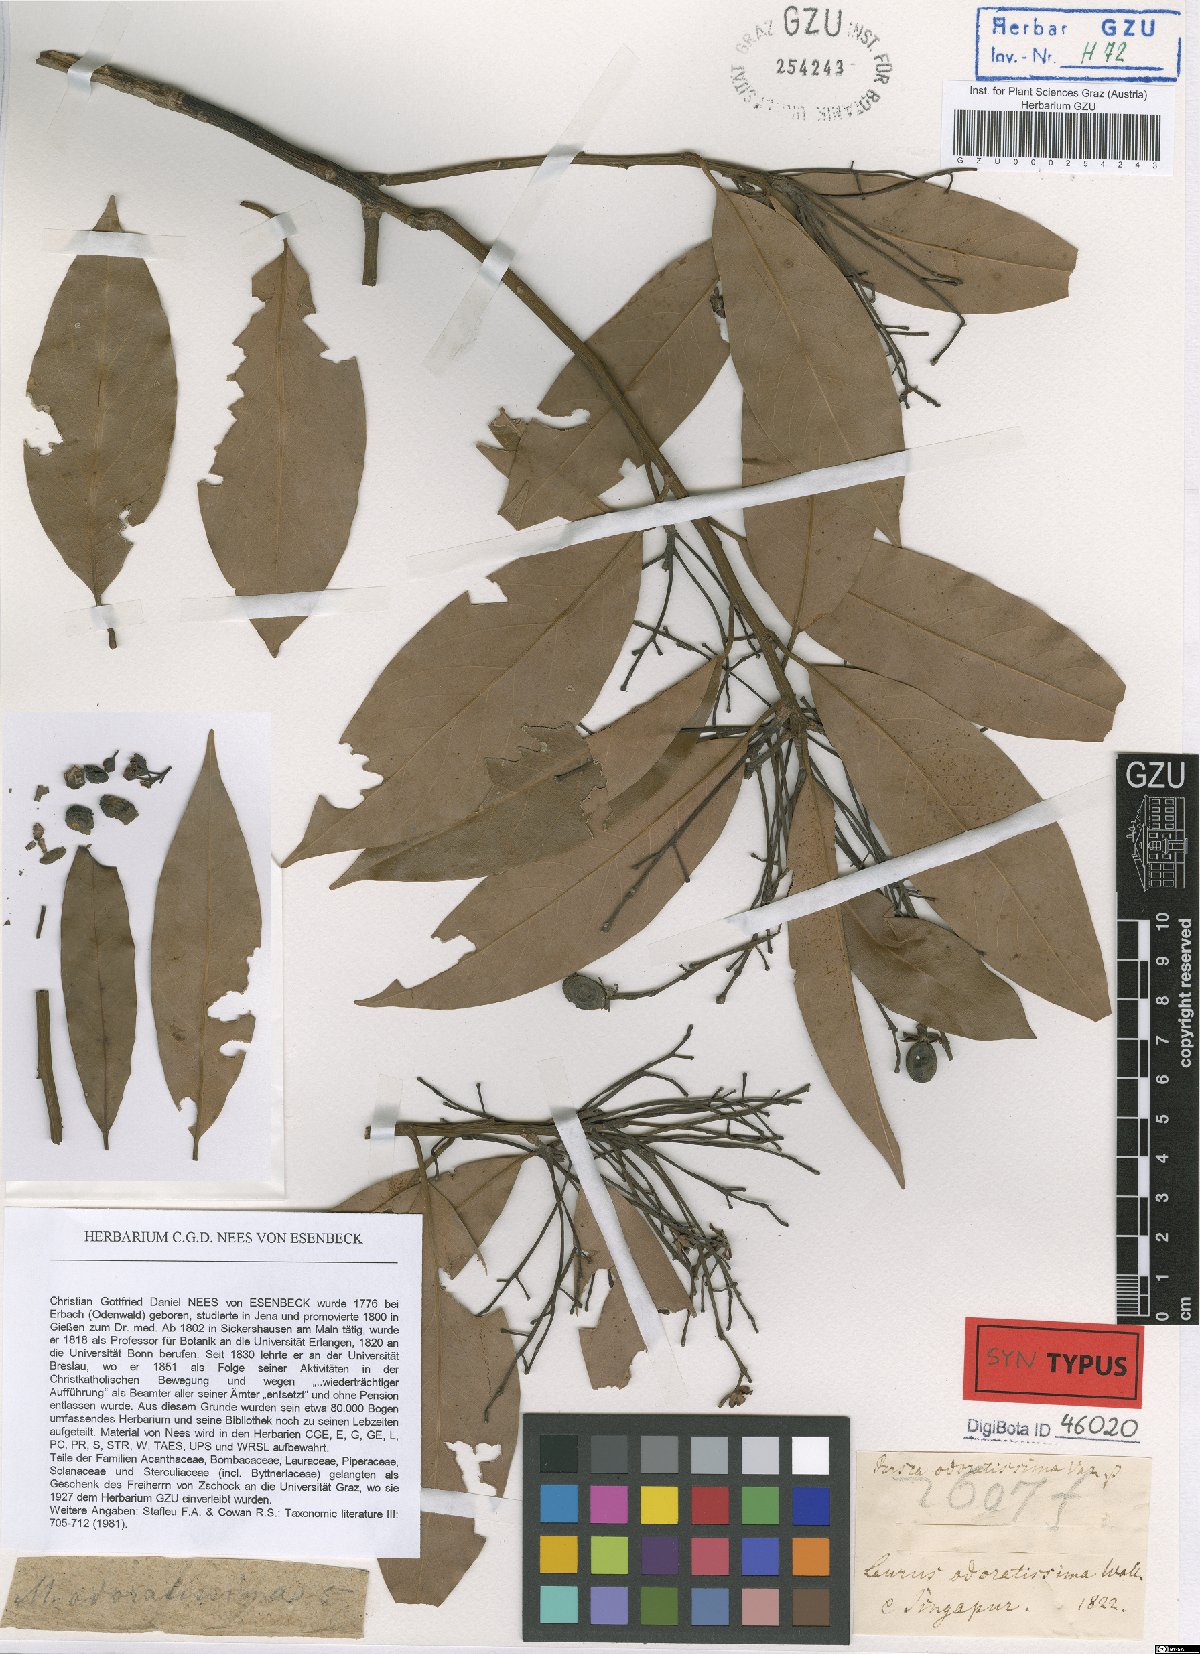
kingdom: Plantae
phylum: Tracheophyta
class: Magnoliopsida
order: Laurales
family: Lauraceae
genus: Machilus
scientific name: Machilus odoratissimus
